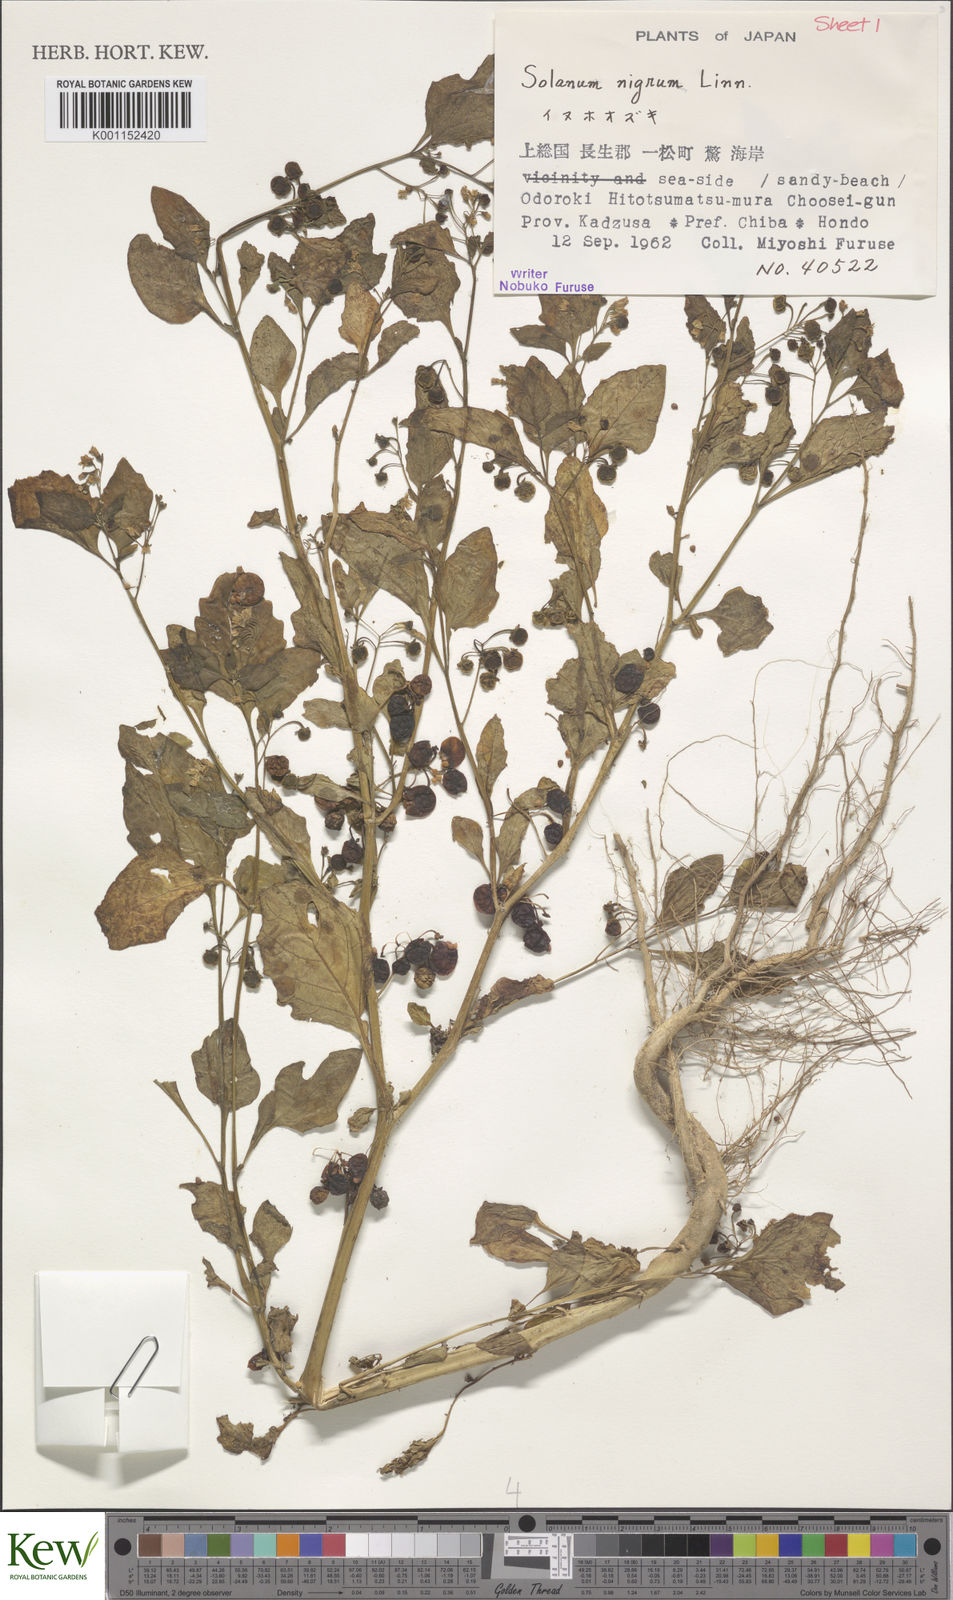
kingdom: Plantae
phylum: Tracheophyta
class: Magnoliopsida
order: Solanales
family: Solanaceae
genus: Solanum
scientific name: Solanum nigrum
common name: Black nightshade
